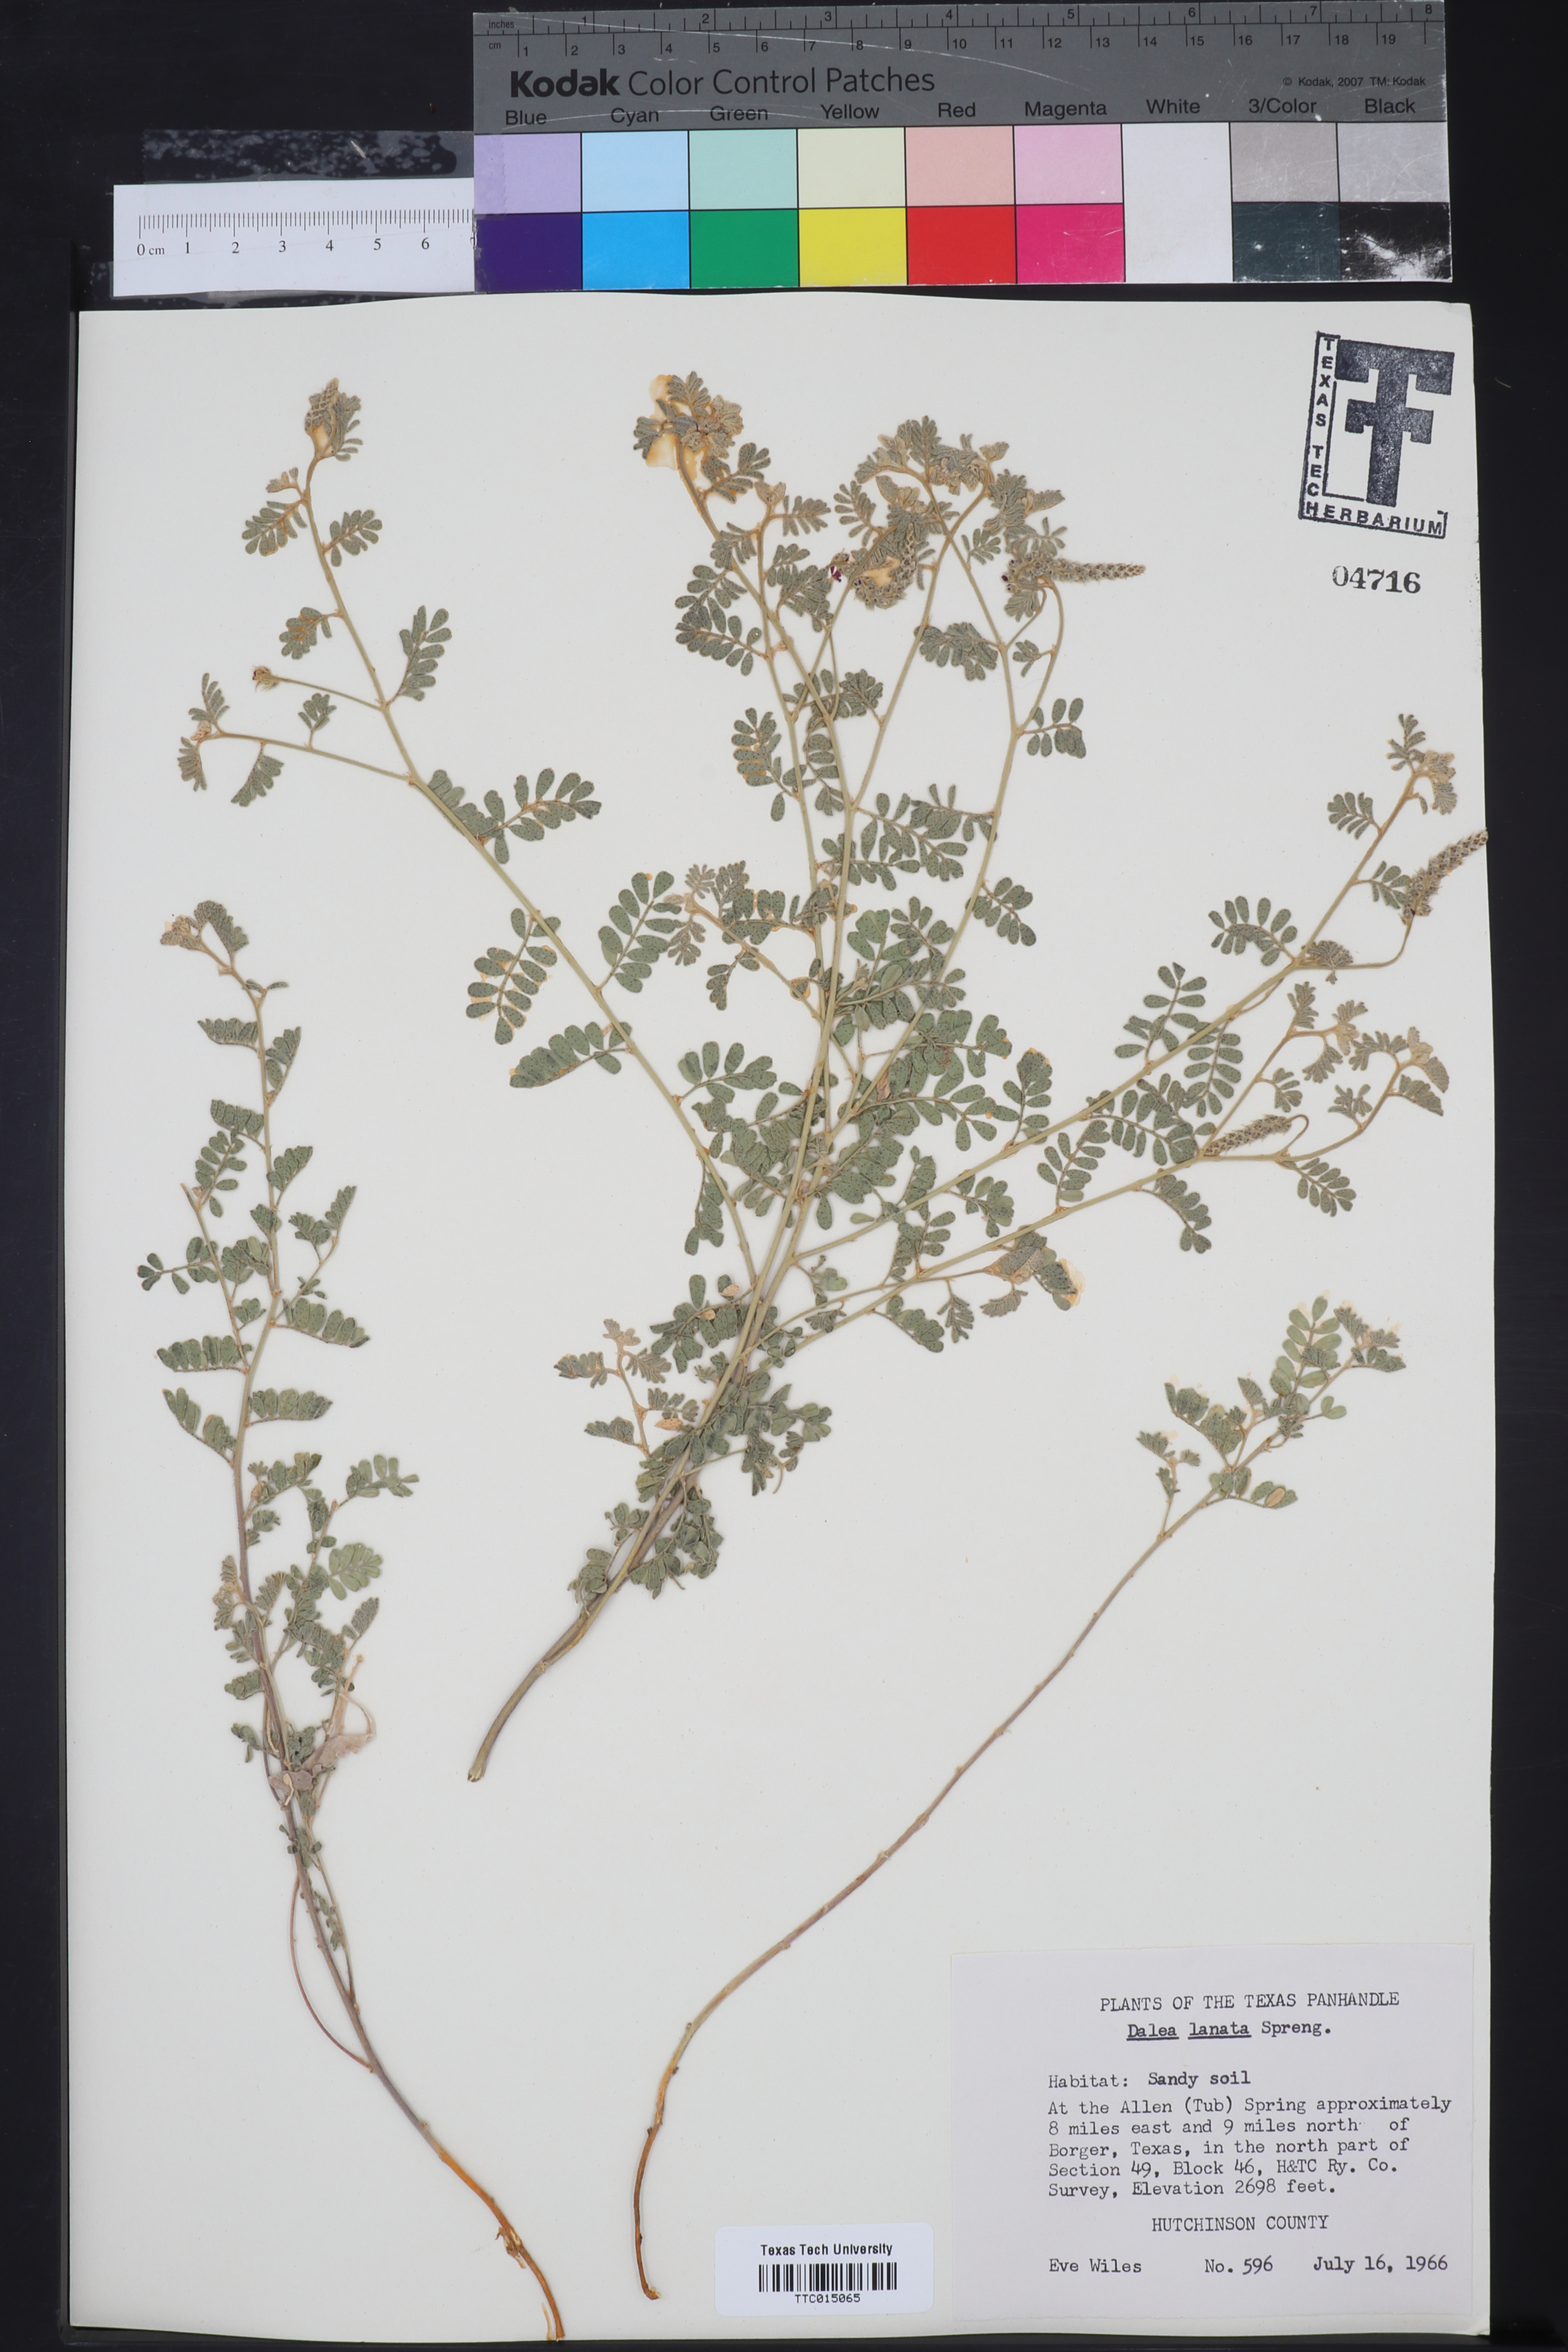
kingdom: Plantae
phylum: Tracheophyta
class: Magnoliopsida
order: Fabales
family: Fabaceae
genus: Dalea
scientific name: Dalea lanata
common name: Woolly dalea
